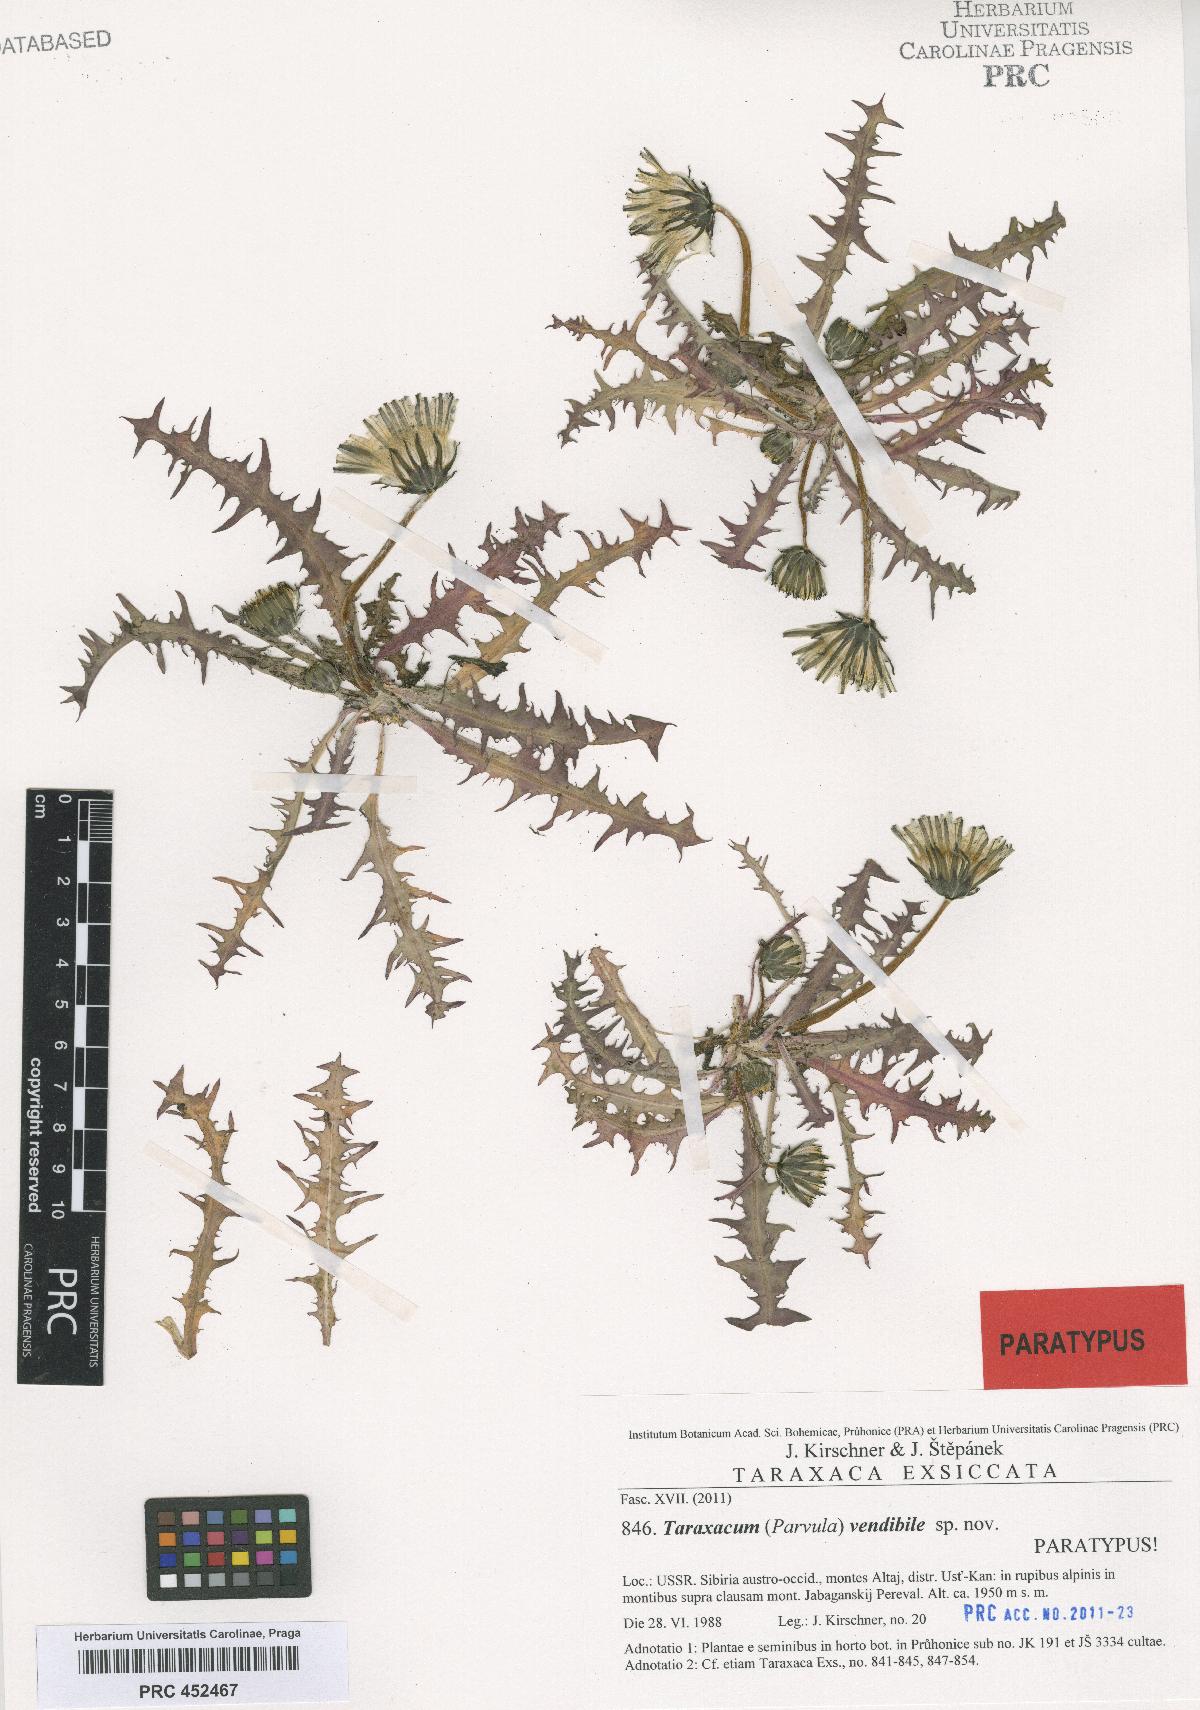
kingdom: Plantae
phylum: Tracheophyta
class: Magnoliopsida
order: Asterales
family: Asteraceae
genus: Taraxacum
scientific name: Taraxacum vendibile
